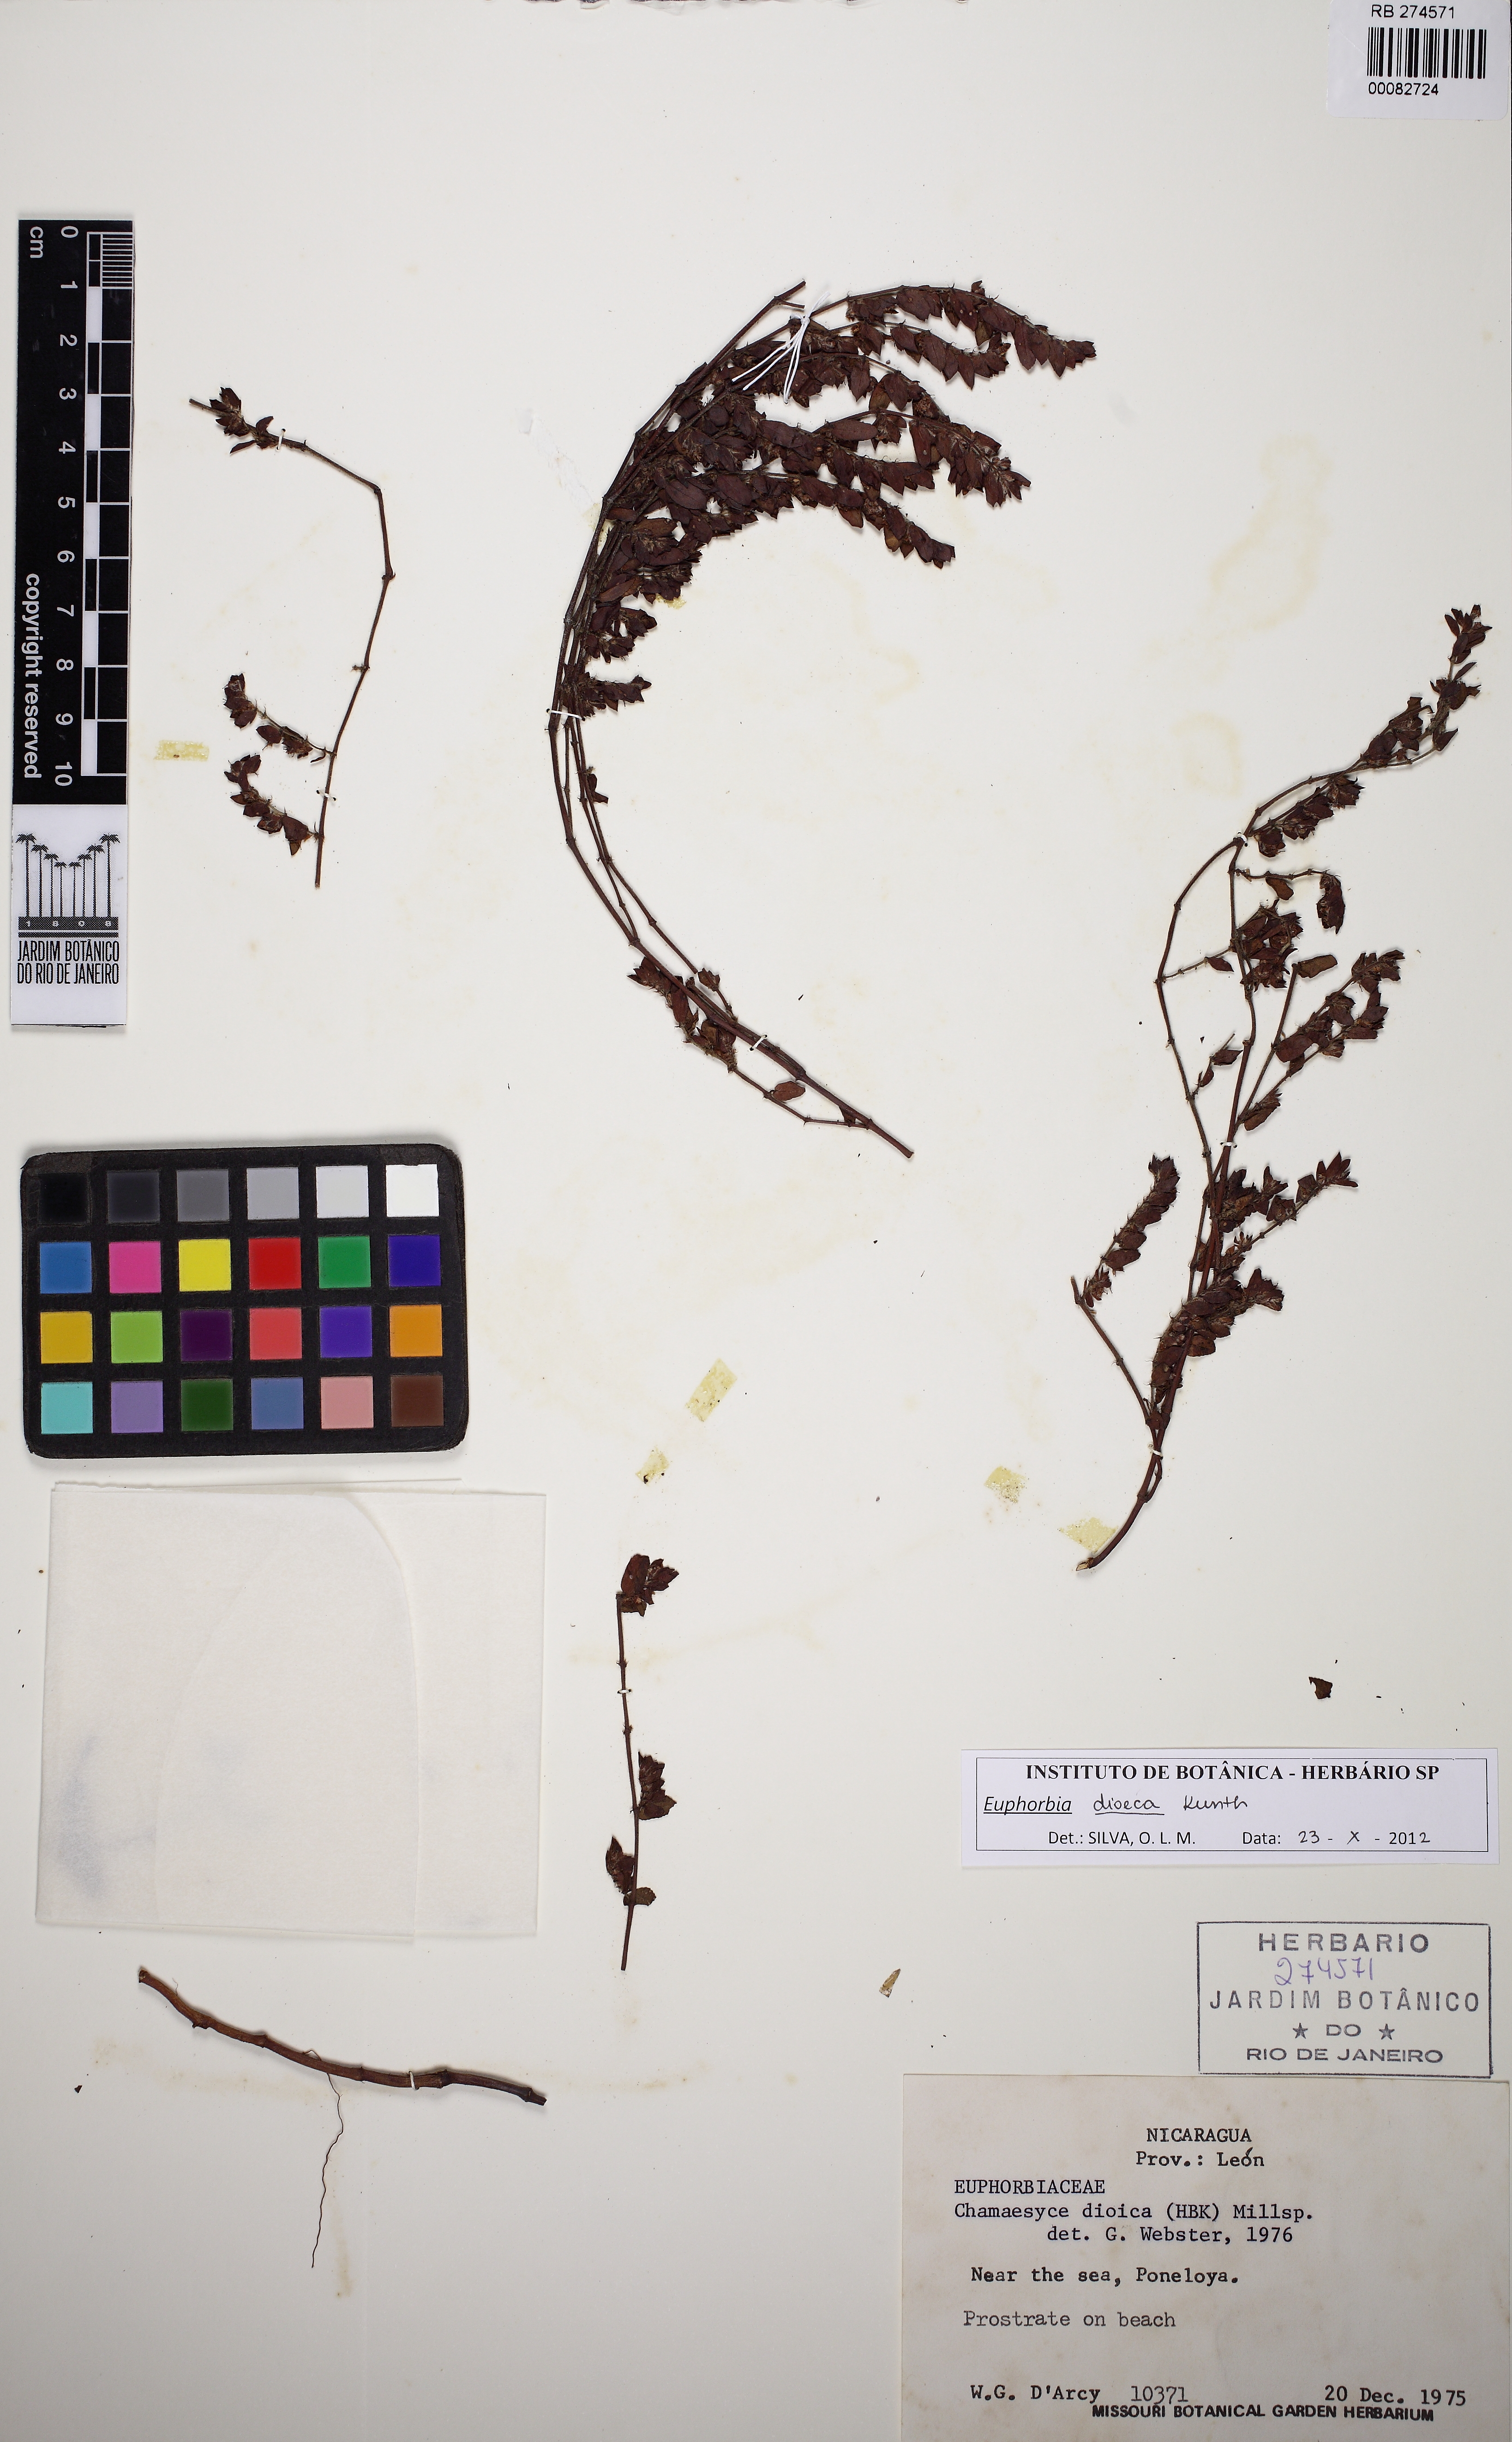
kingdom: Plantae
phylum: Tracheophyta
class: Magnoliopsida
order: Malpighiales
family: Euphorbiaceae
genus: Euphorbia
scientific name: Euphorbia dioeca
